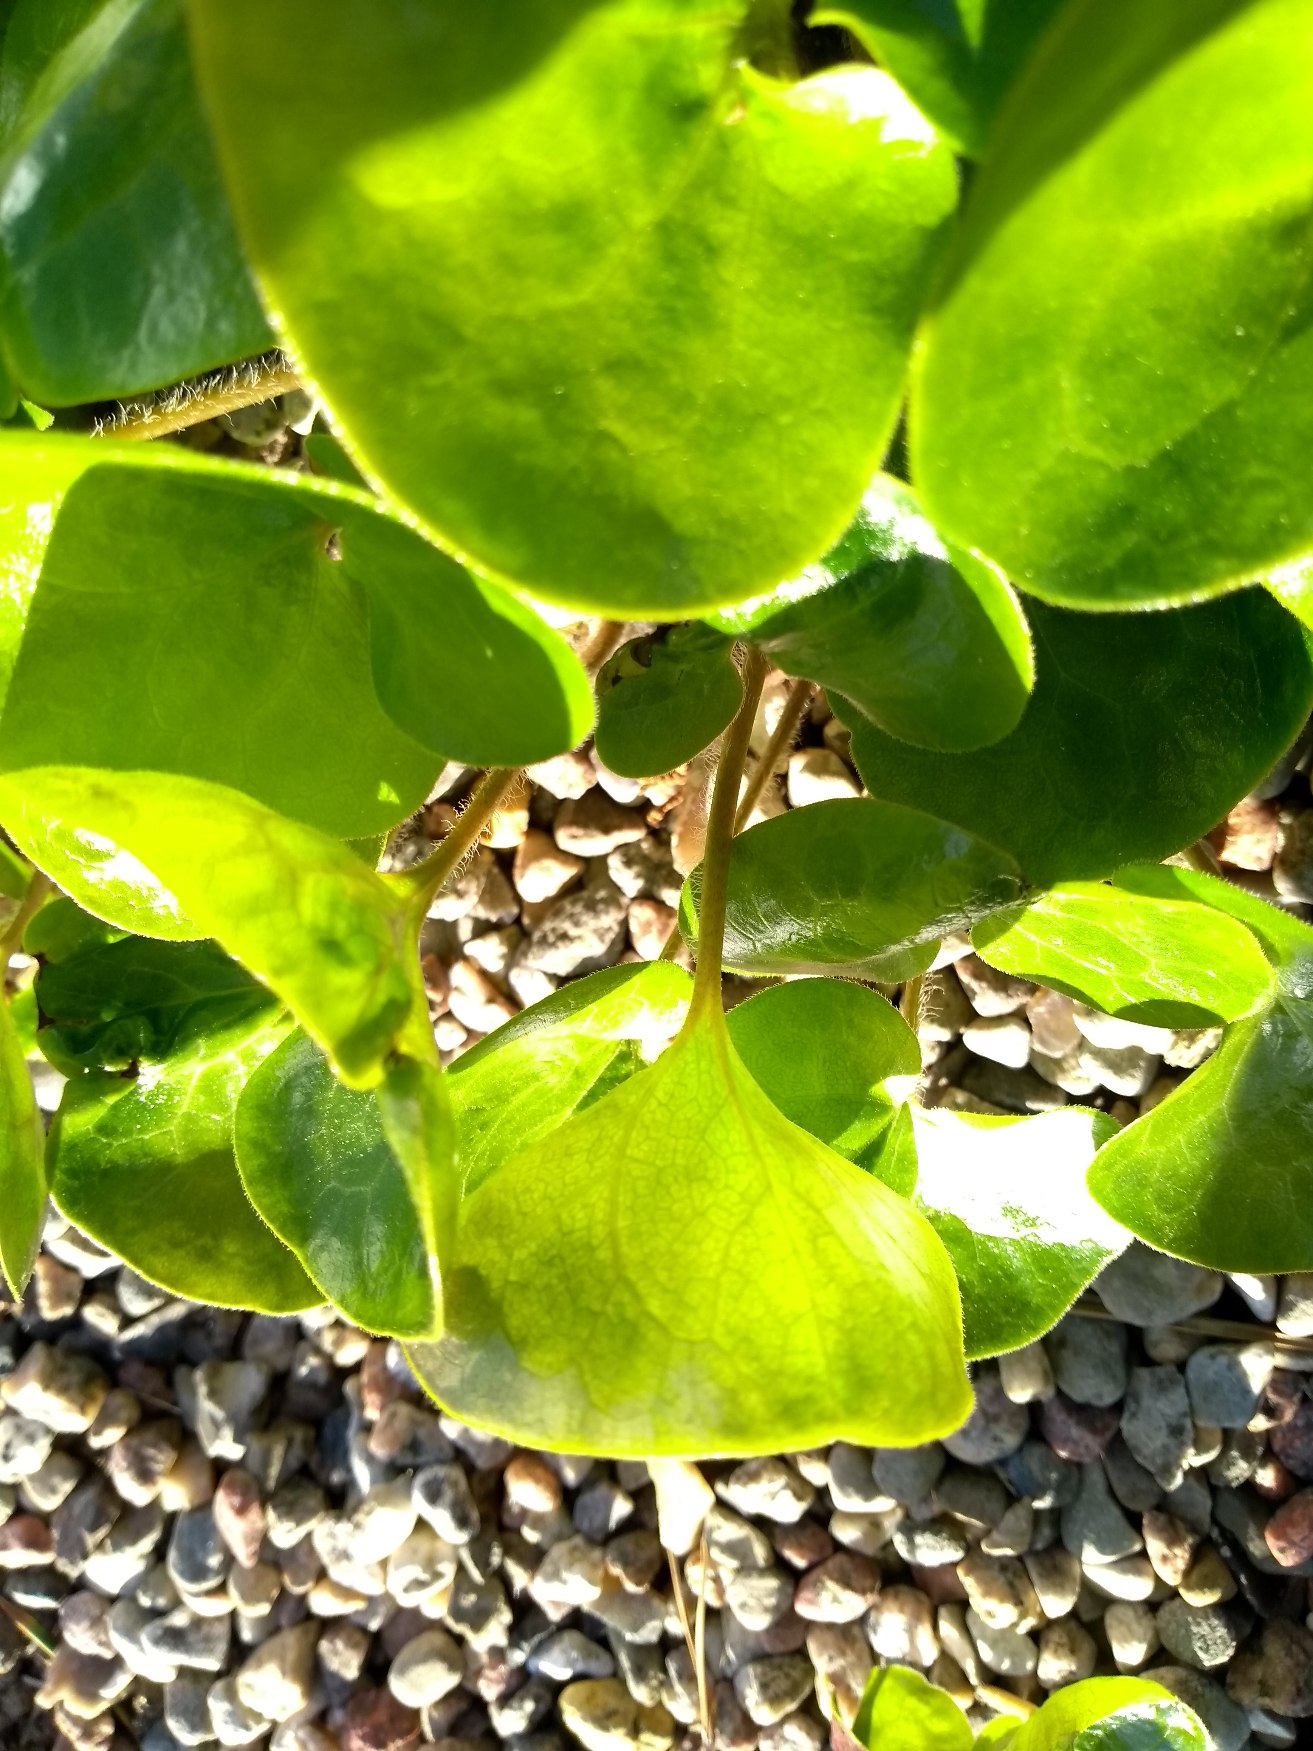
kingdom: Plantae
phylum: Tracheophyta
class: Magnoliopsida
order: Piperales
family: Aristolochiaceae
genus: Asarum
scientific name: Asarum europaeum
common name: Hasselurt
